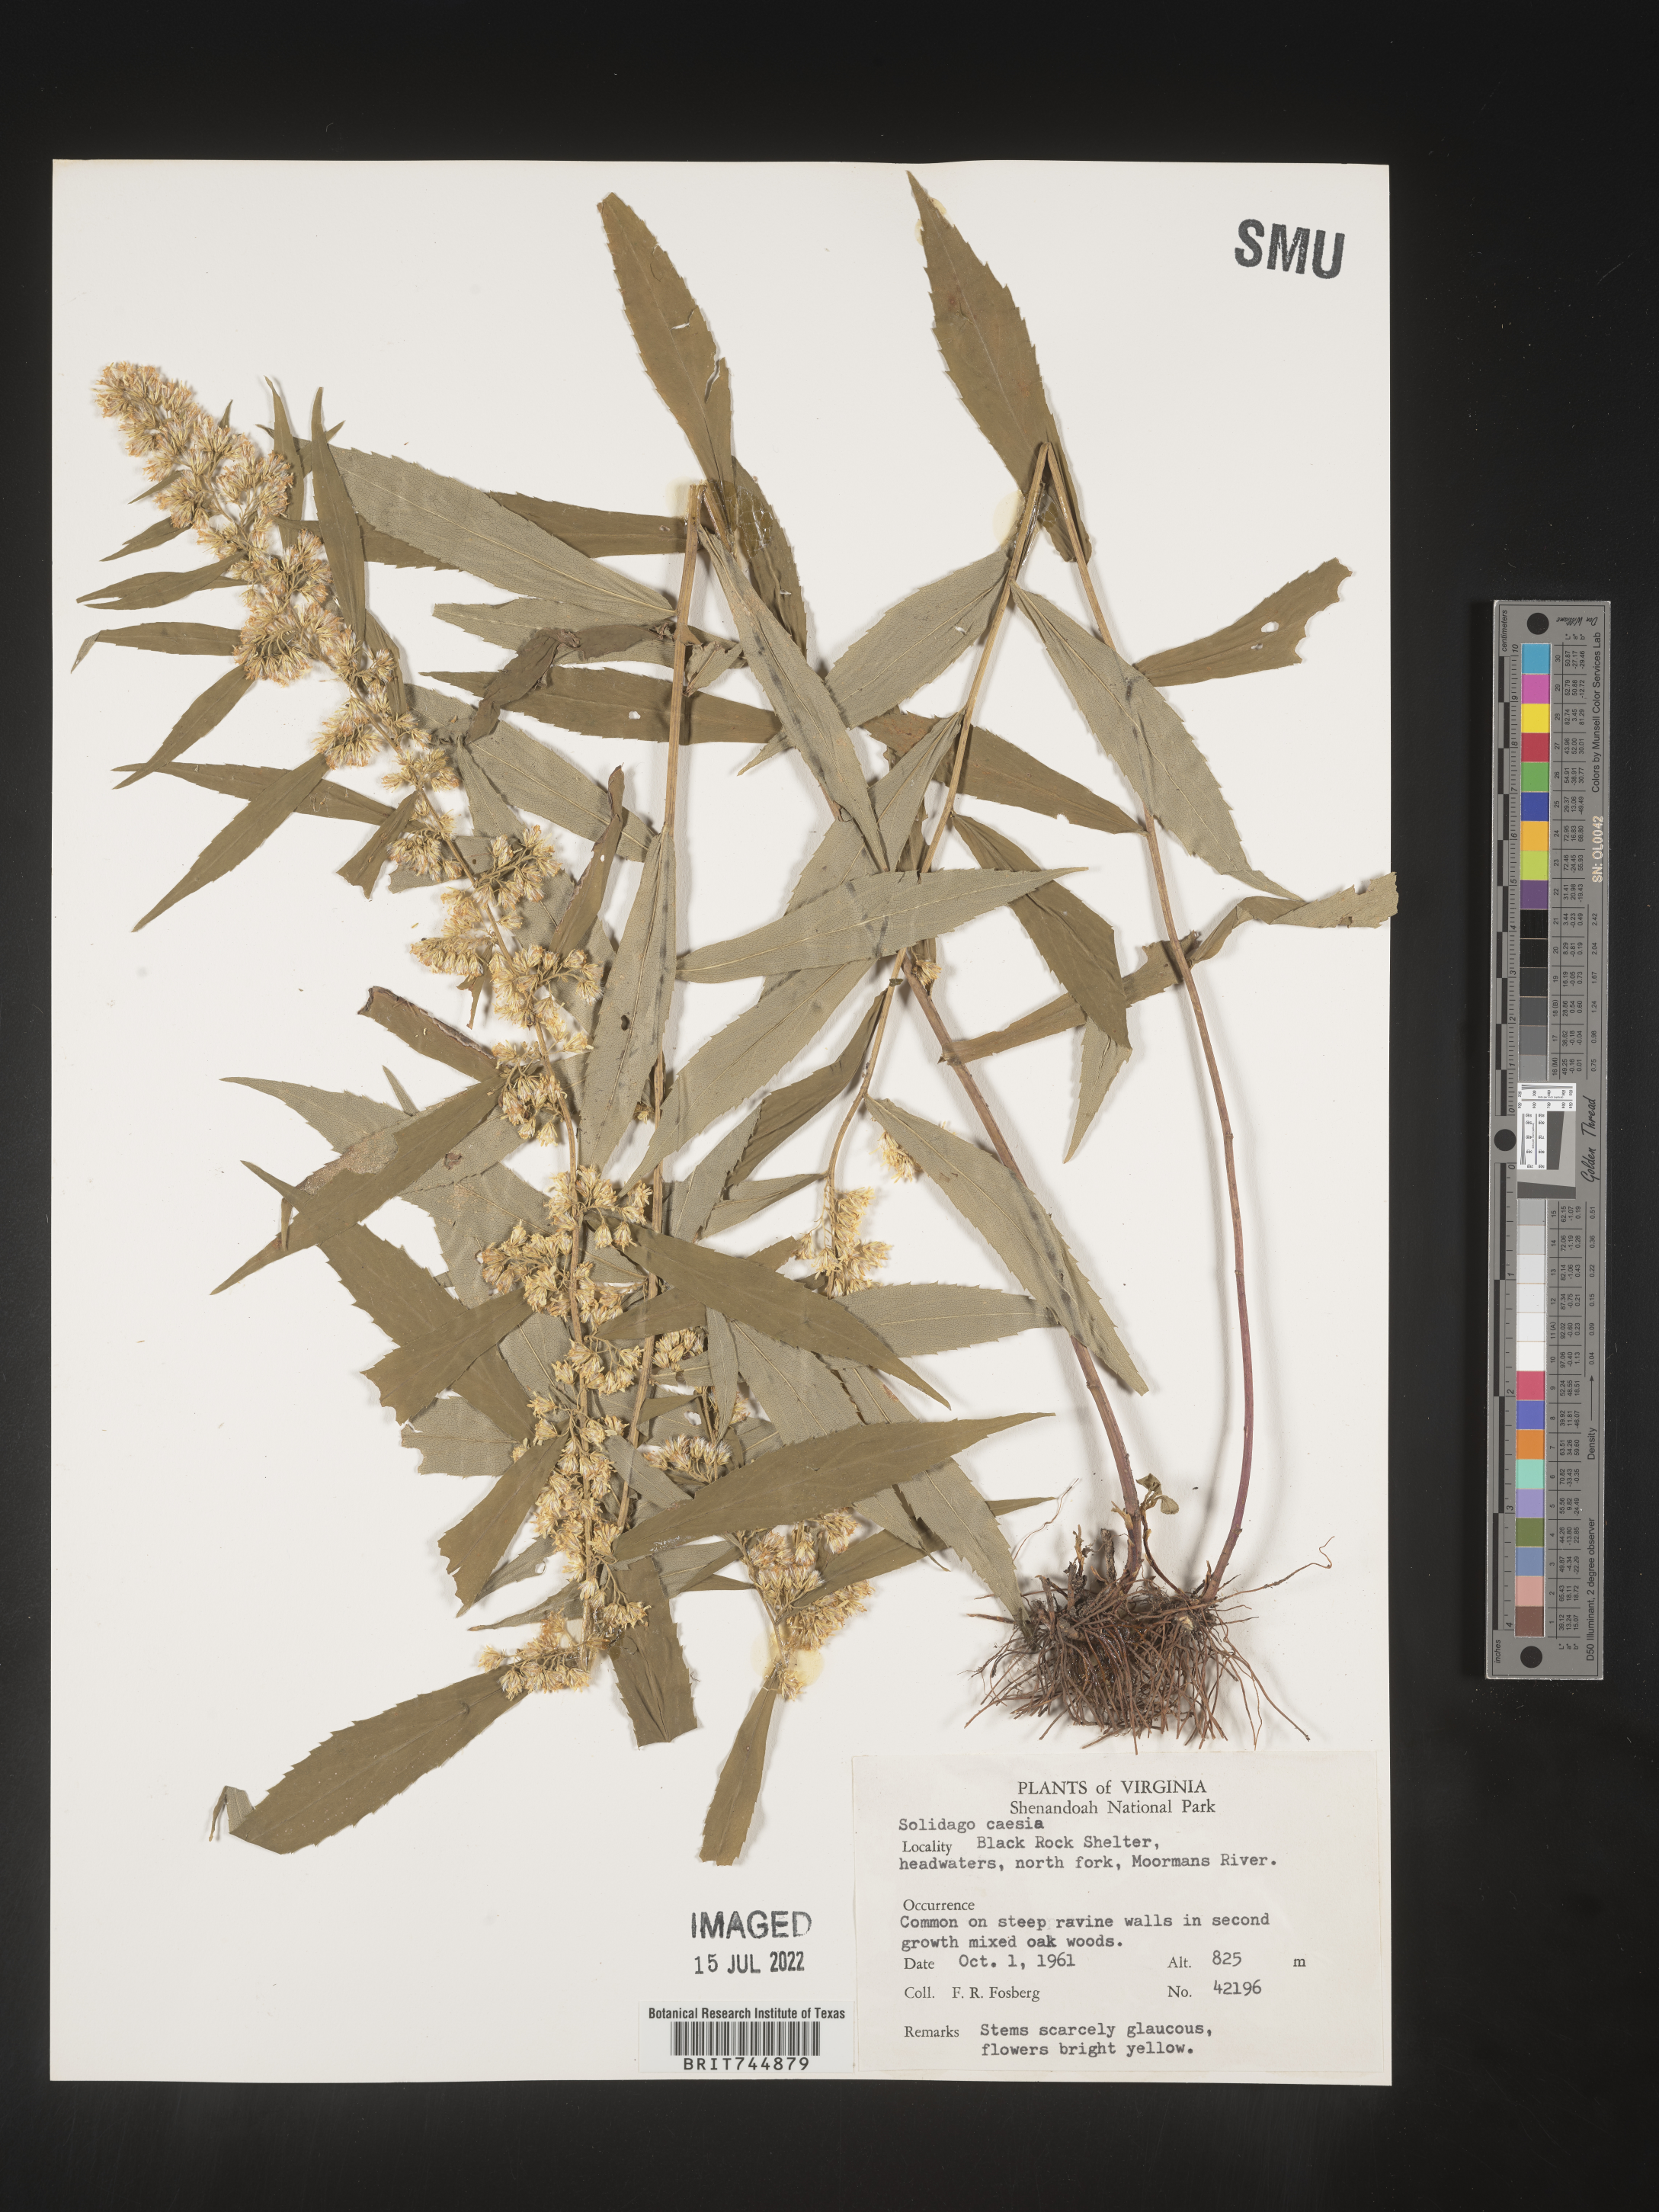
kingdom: Plantae
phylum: Tracheophyta
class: Magnoliopsida
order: Asterales
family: Asteraceae
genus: Solidago
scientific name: Solidago caesia
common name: Woodland goldenrod
